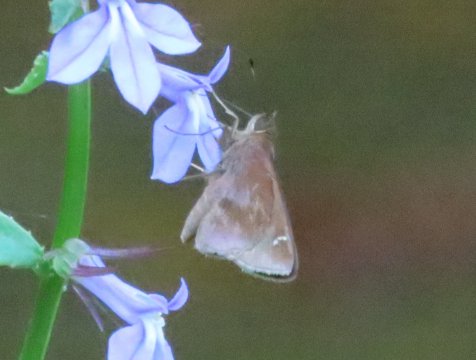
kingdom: Animalia
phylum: Arthropoda
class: Insecta
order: Lepidoptera
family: Hesperiidae
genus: Lerema
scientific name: Lerema accius
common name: Clouded Skipper
